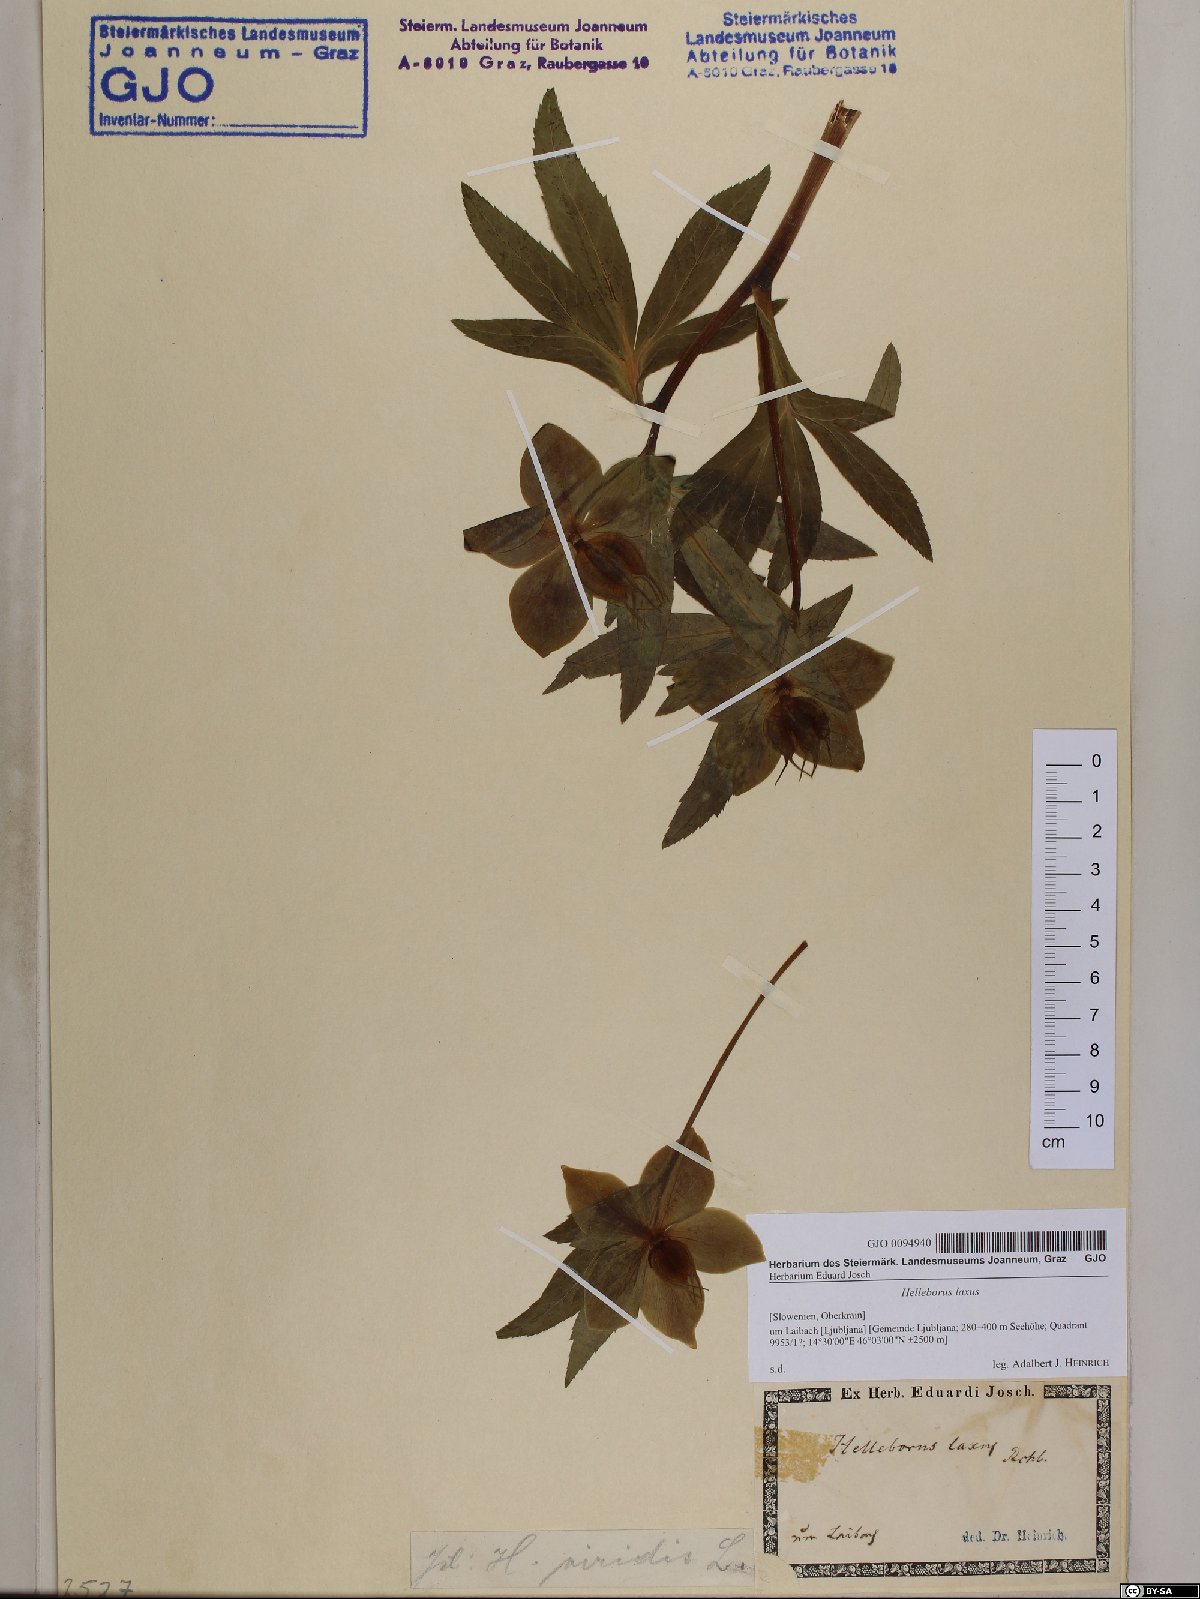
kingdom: Plantae
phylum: Tracheophyta
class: Magnoliopsida
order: Ranunculales
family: Ranunculaceae
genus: Helleborus
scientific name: Helleborus multifidus
